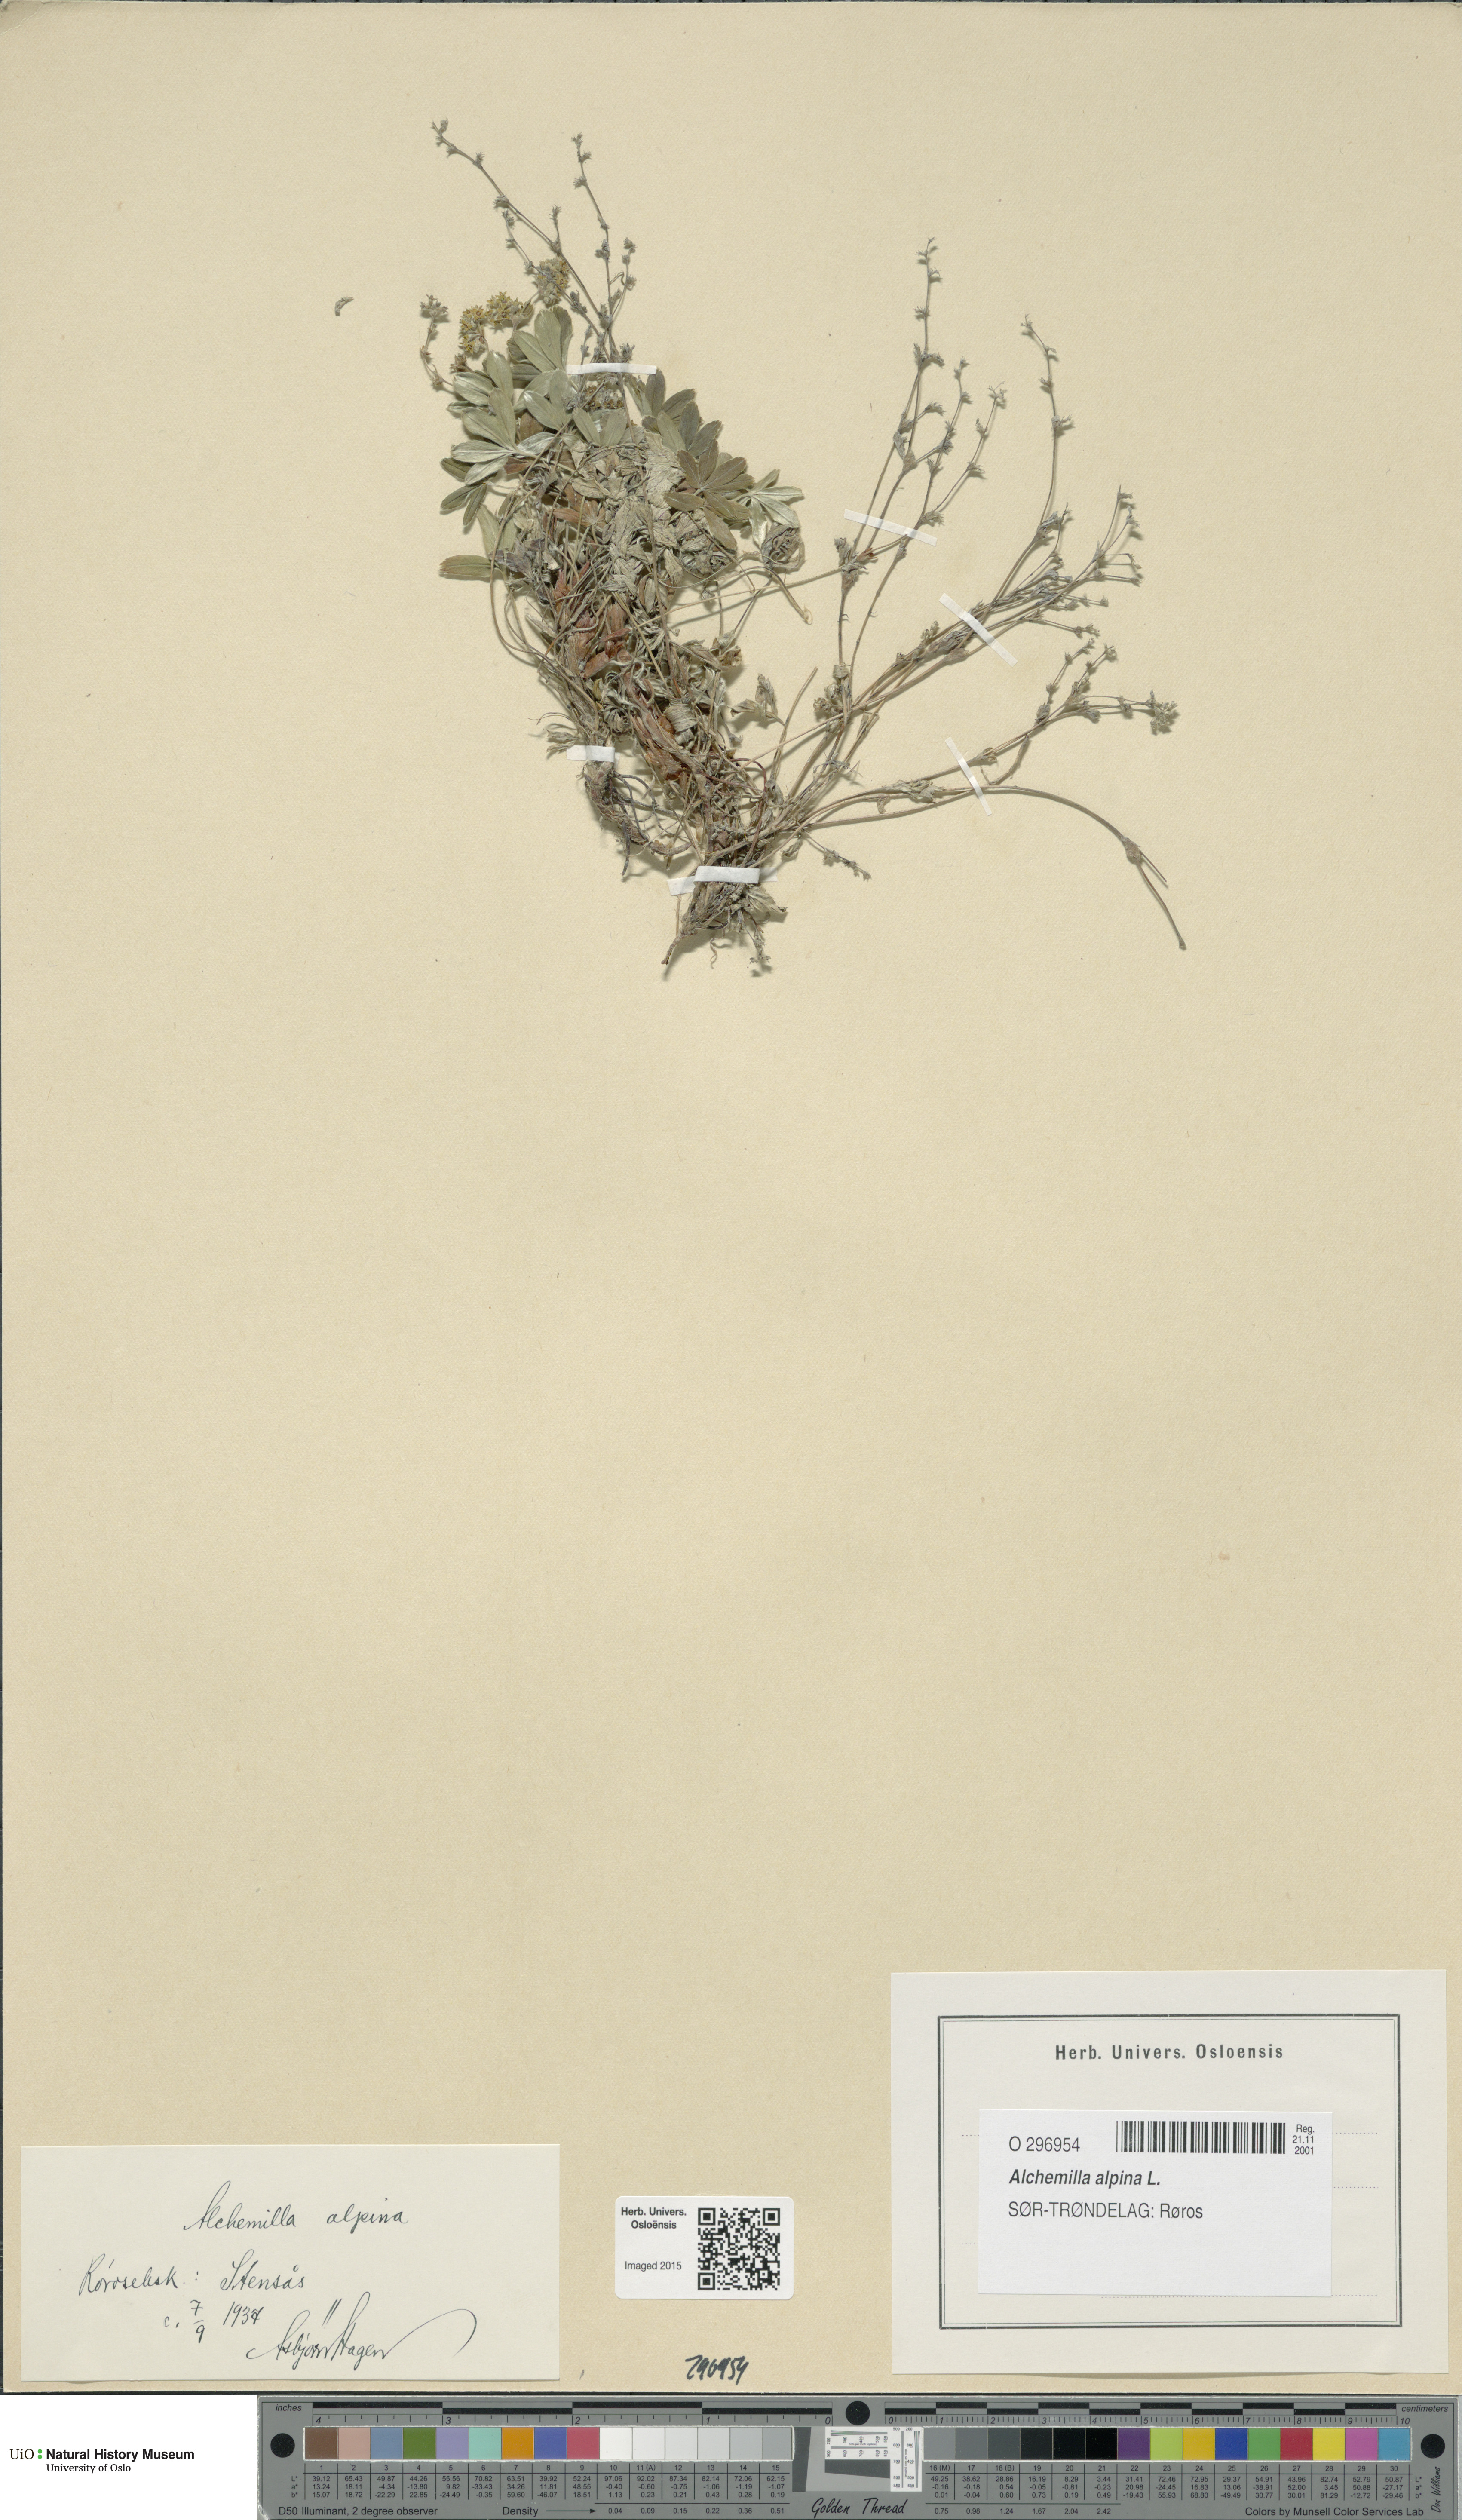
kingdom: Plantae
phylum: Tracheophyta
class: Magnoliopsida
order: Rosales
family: Rosaceae
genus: Alchemilla
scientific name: Alchemilla alpina
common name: Alpine lady's-mantle
